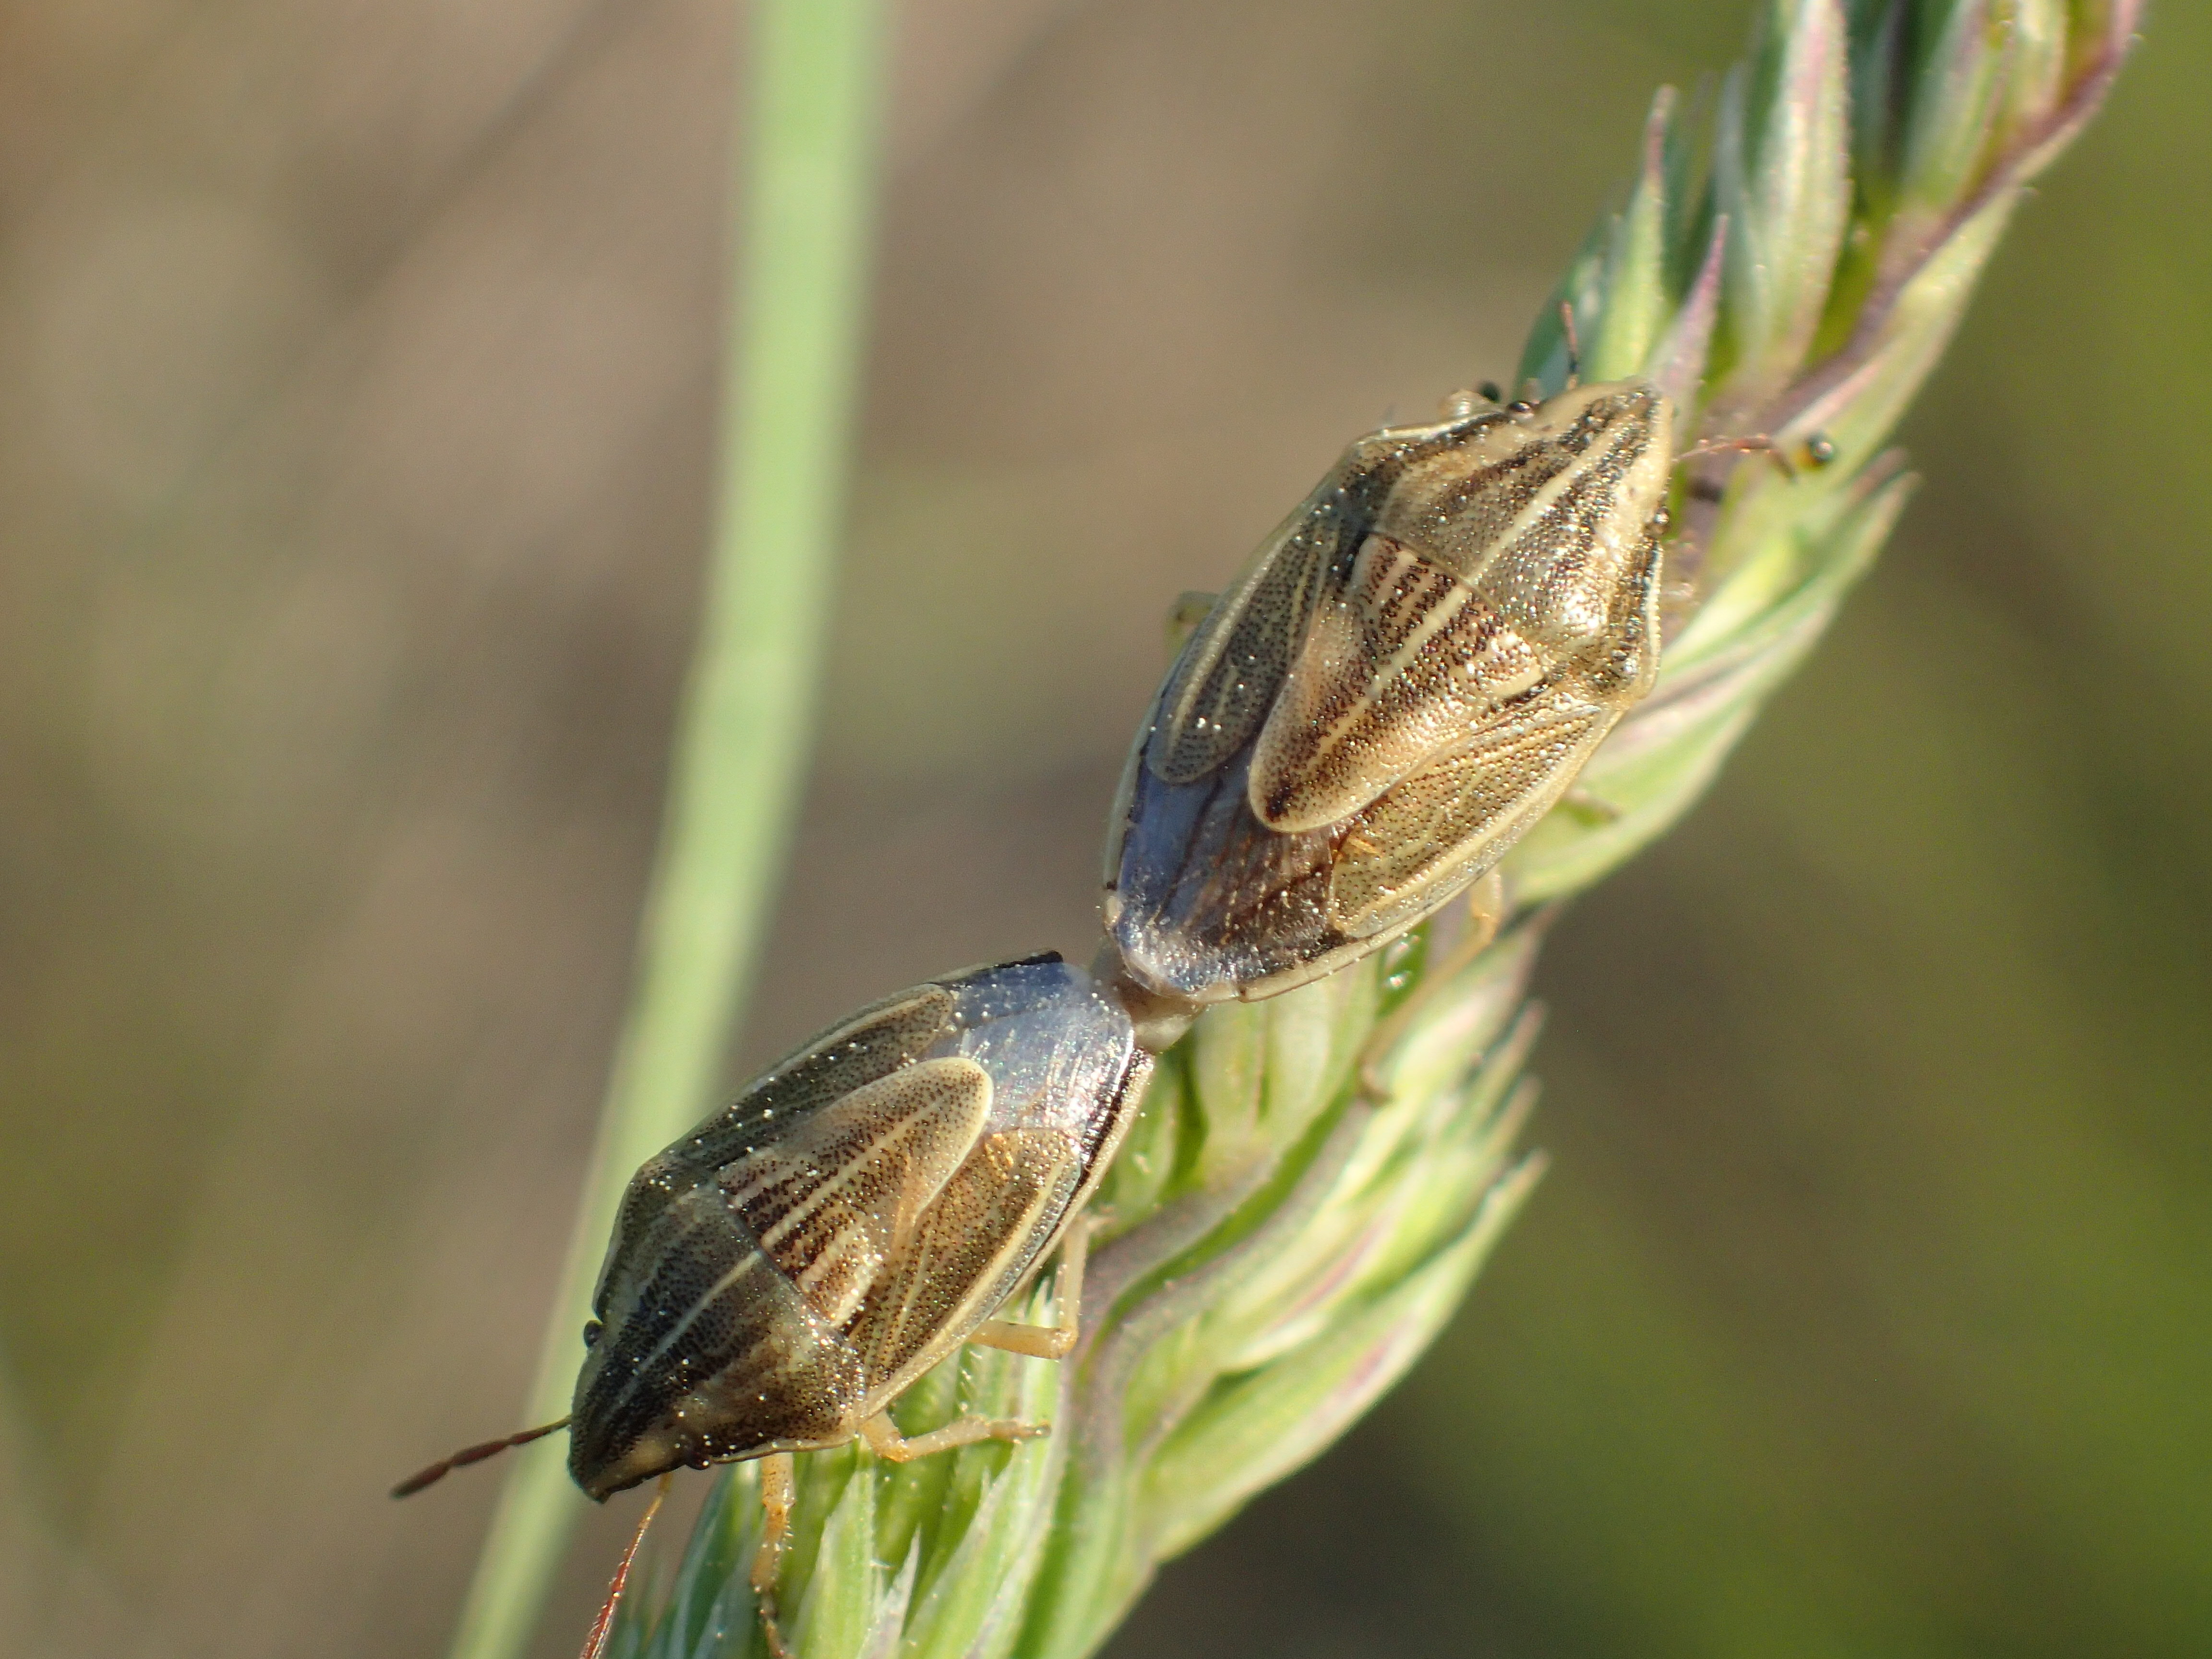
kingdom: Animalia
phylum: Arthropoda
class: Insecta
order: Hemiptera
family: Pentatomidae
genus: Aelia
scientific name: Aelia klugii
